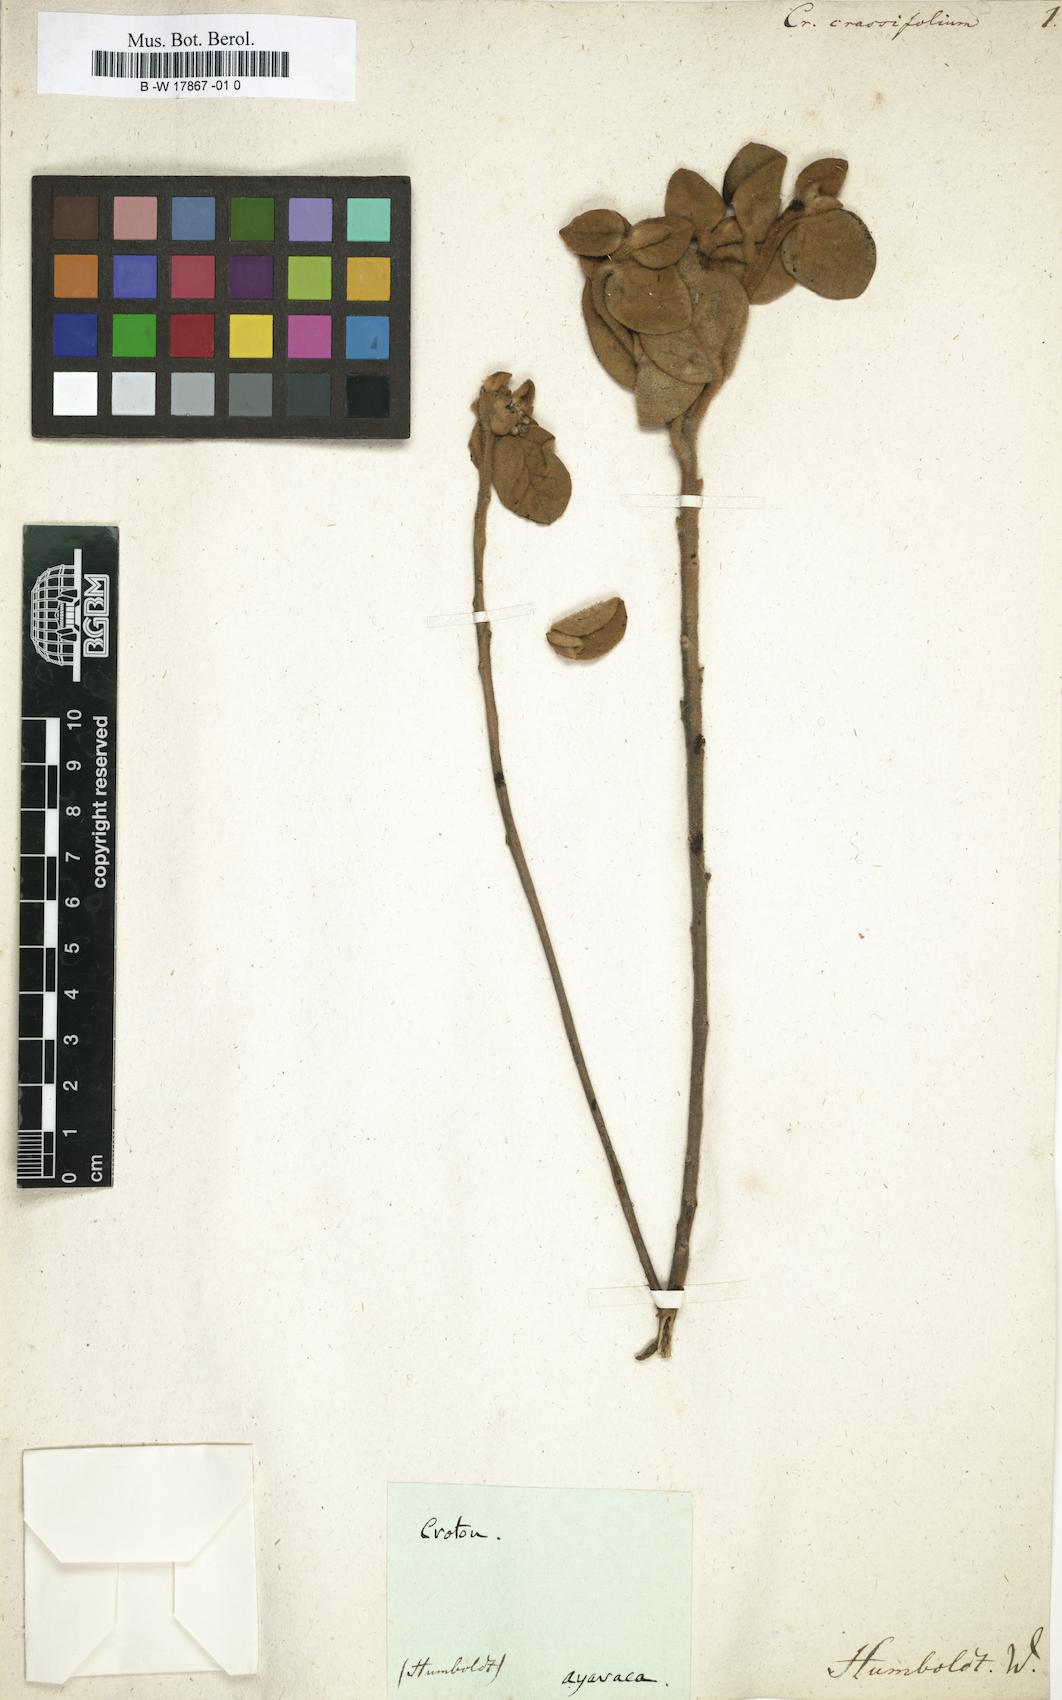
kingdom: Plantae
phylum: Tracheophyta
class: Magnoliopsida
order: Malpighiales
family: Euphorbiaceae
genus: Croton
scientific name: Croton crassifolius
